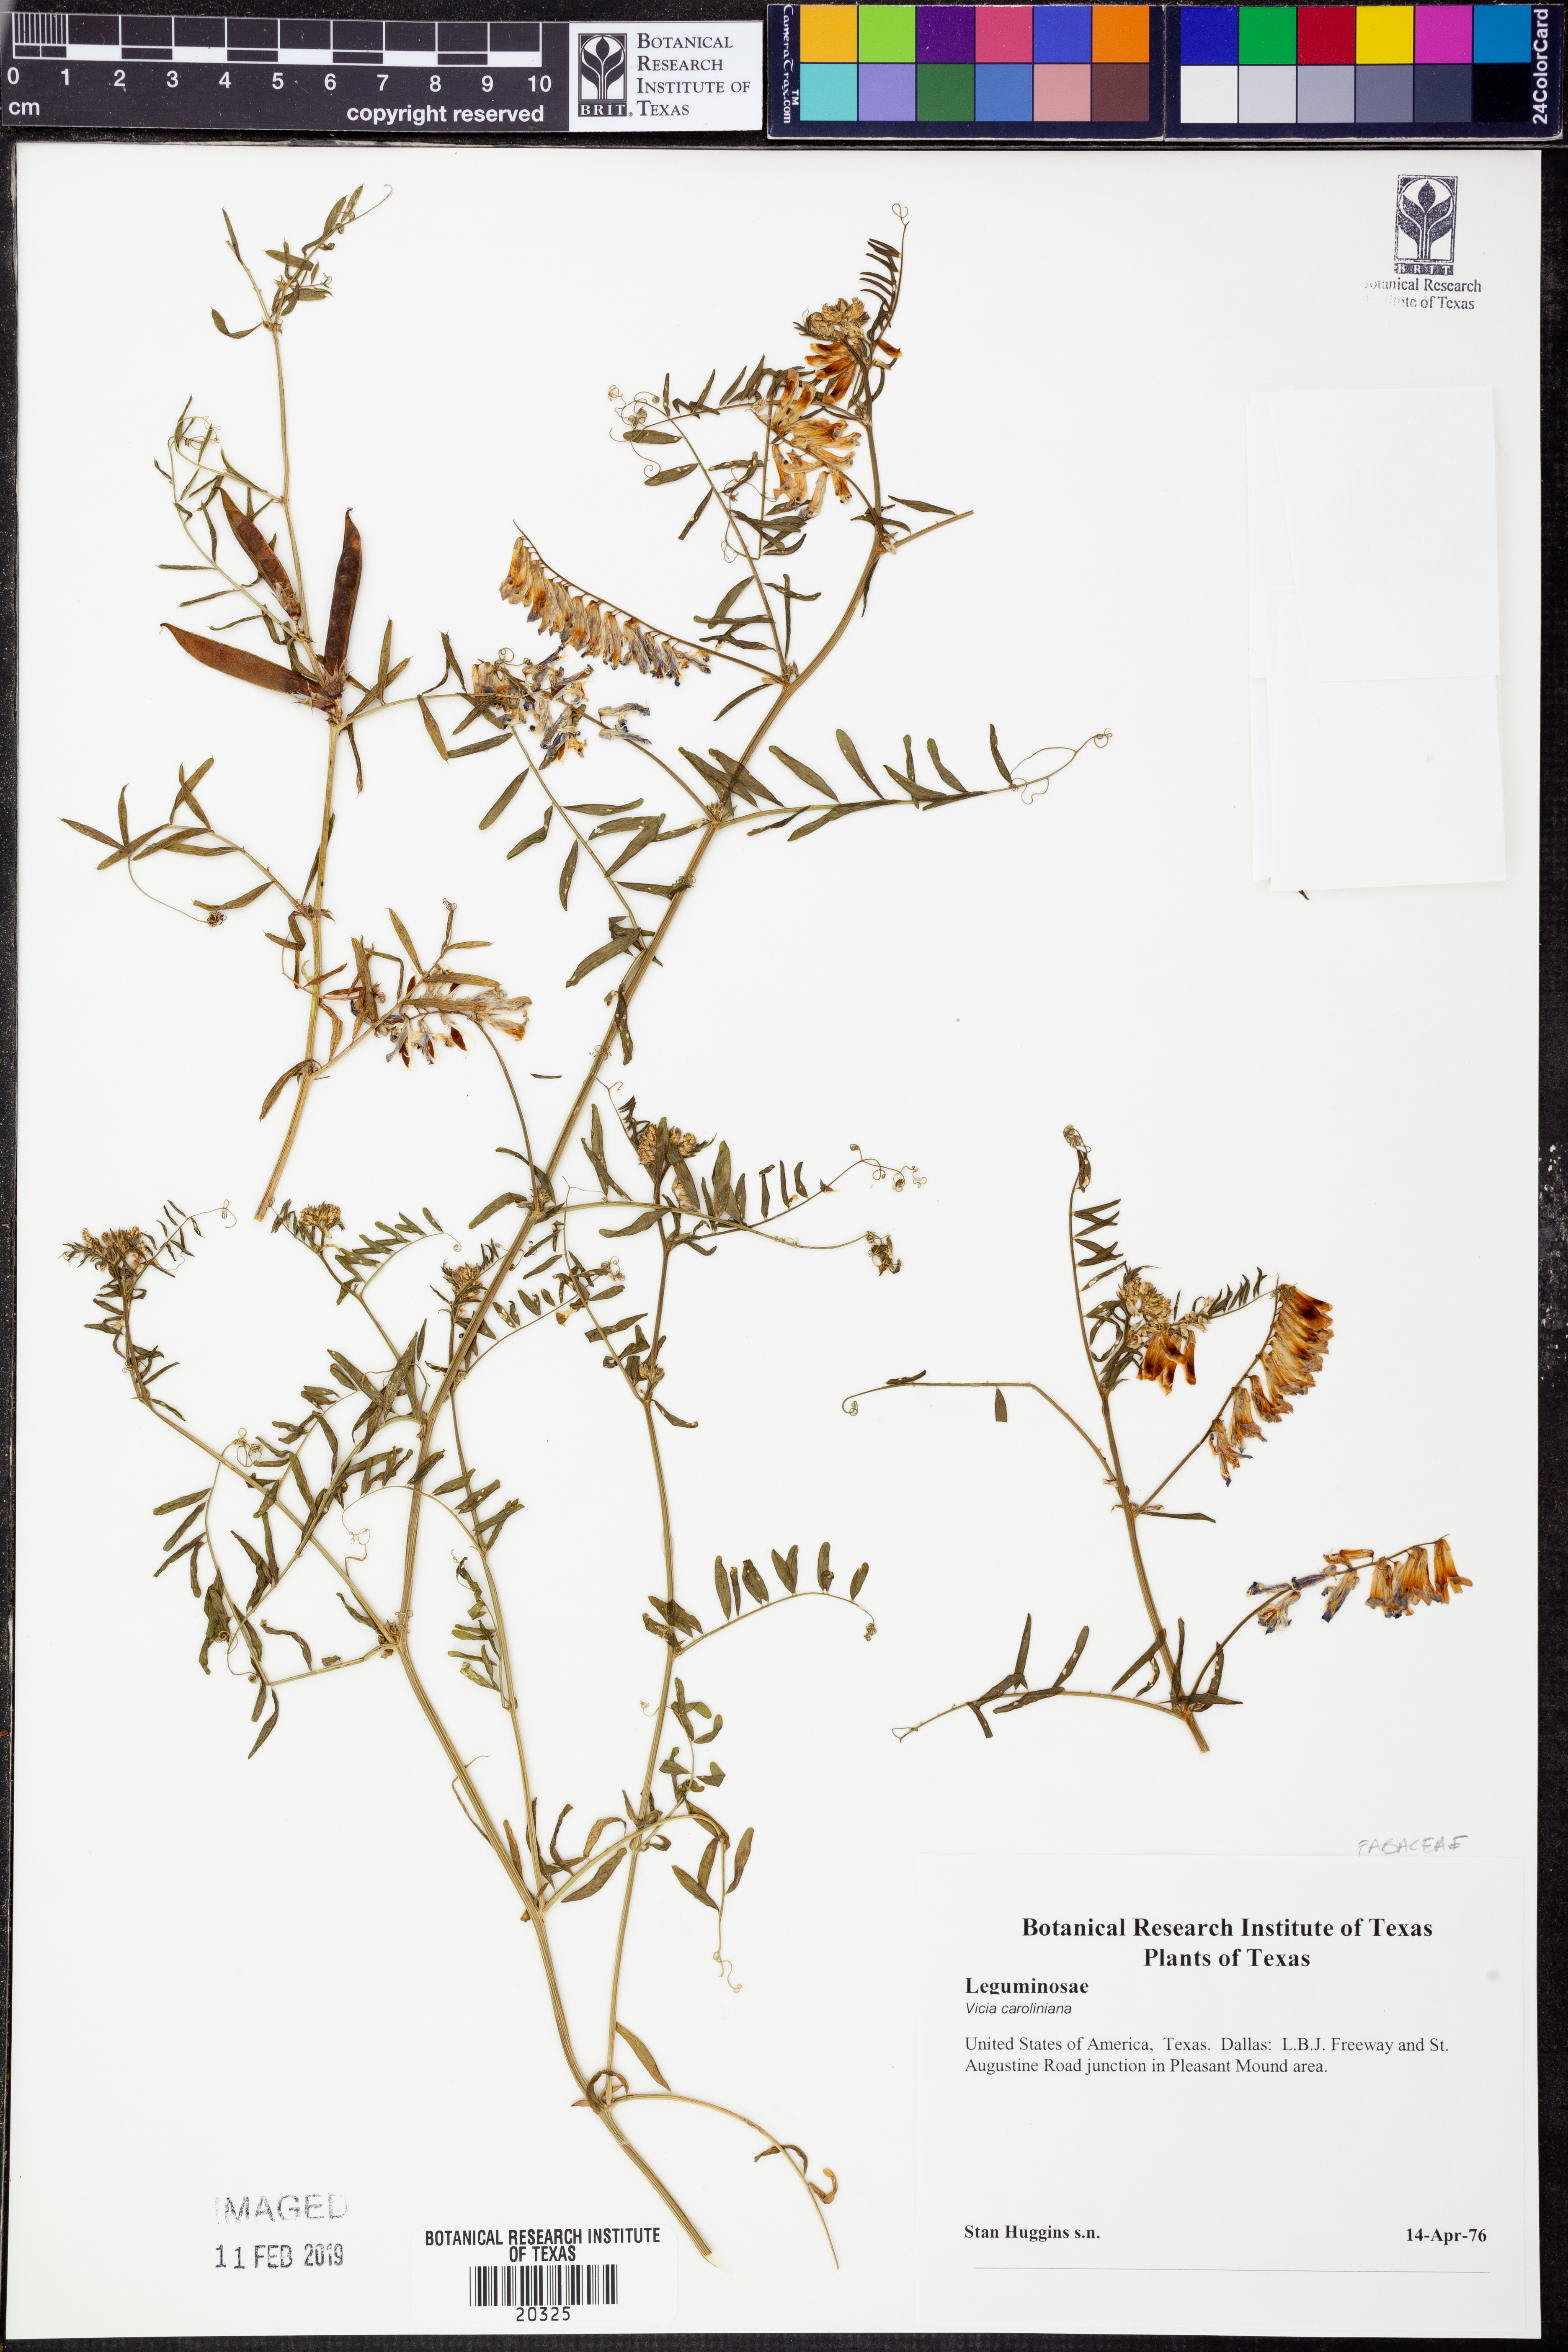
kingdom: Plantae
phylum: Tracheophyta
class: Magnoliopsida
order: Fabales
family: Fabaceae
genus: Vicia
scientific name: Vicia caroliniana
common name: Carolina vetch
